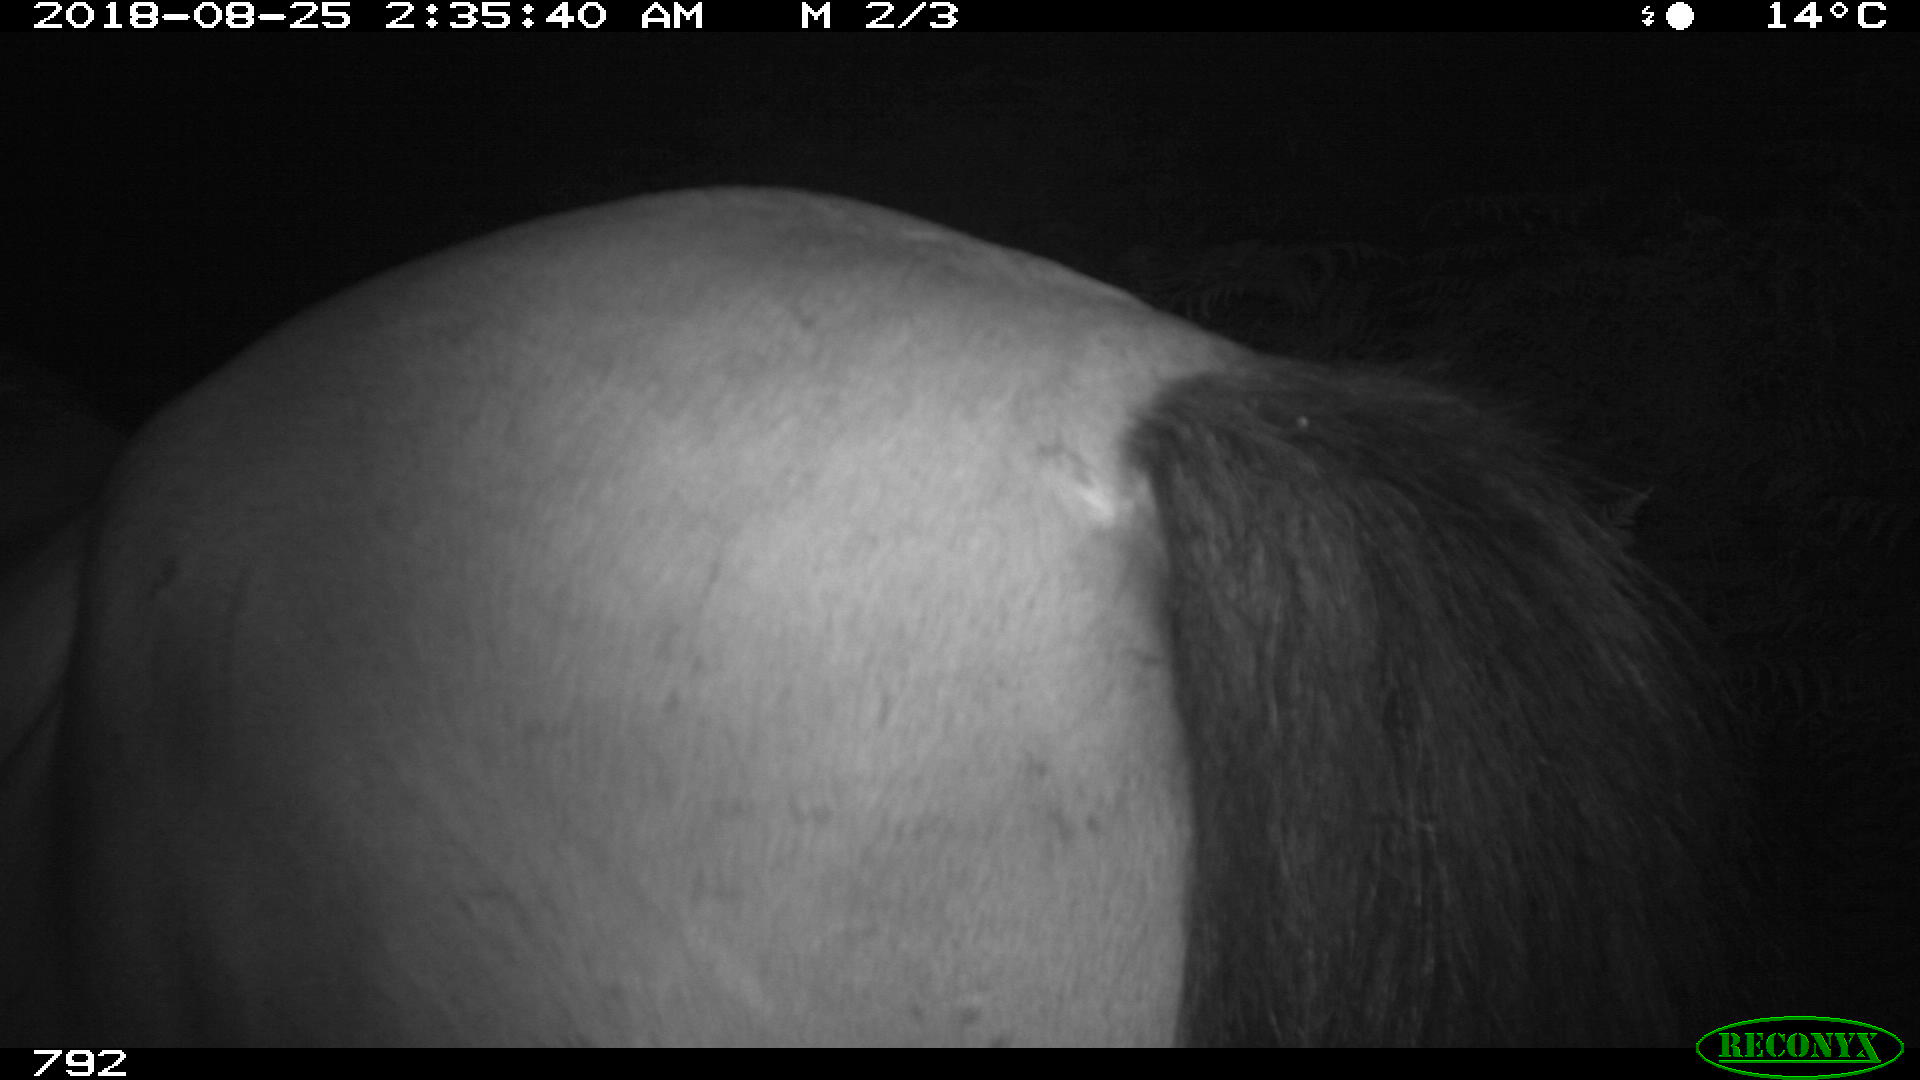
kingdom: Animalia
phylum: Chordata
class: Mammalia
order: Perissodactyla
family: Equidae
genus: Equus
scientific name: Equus caballus
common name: Horse
